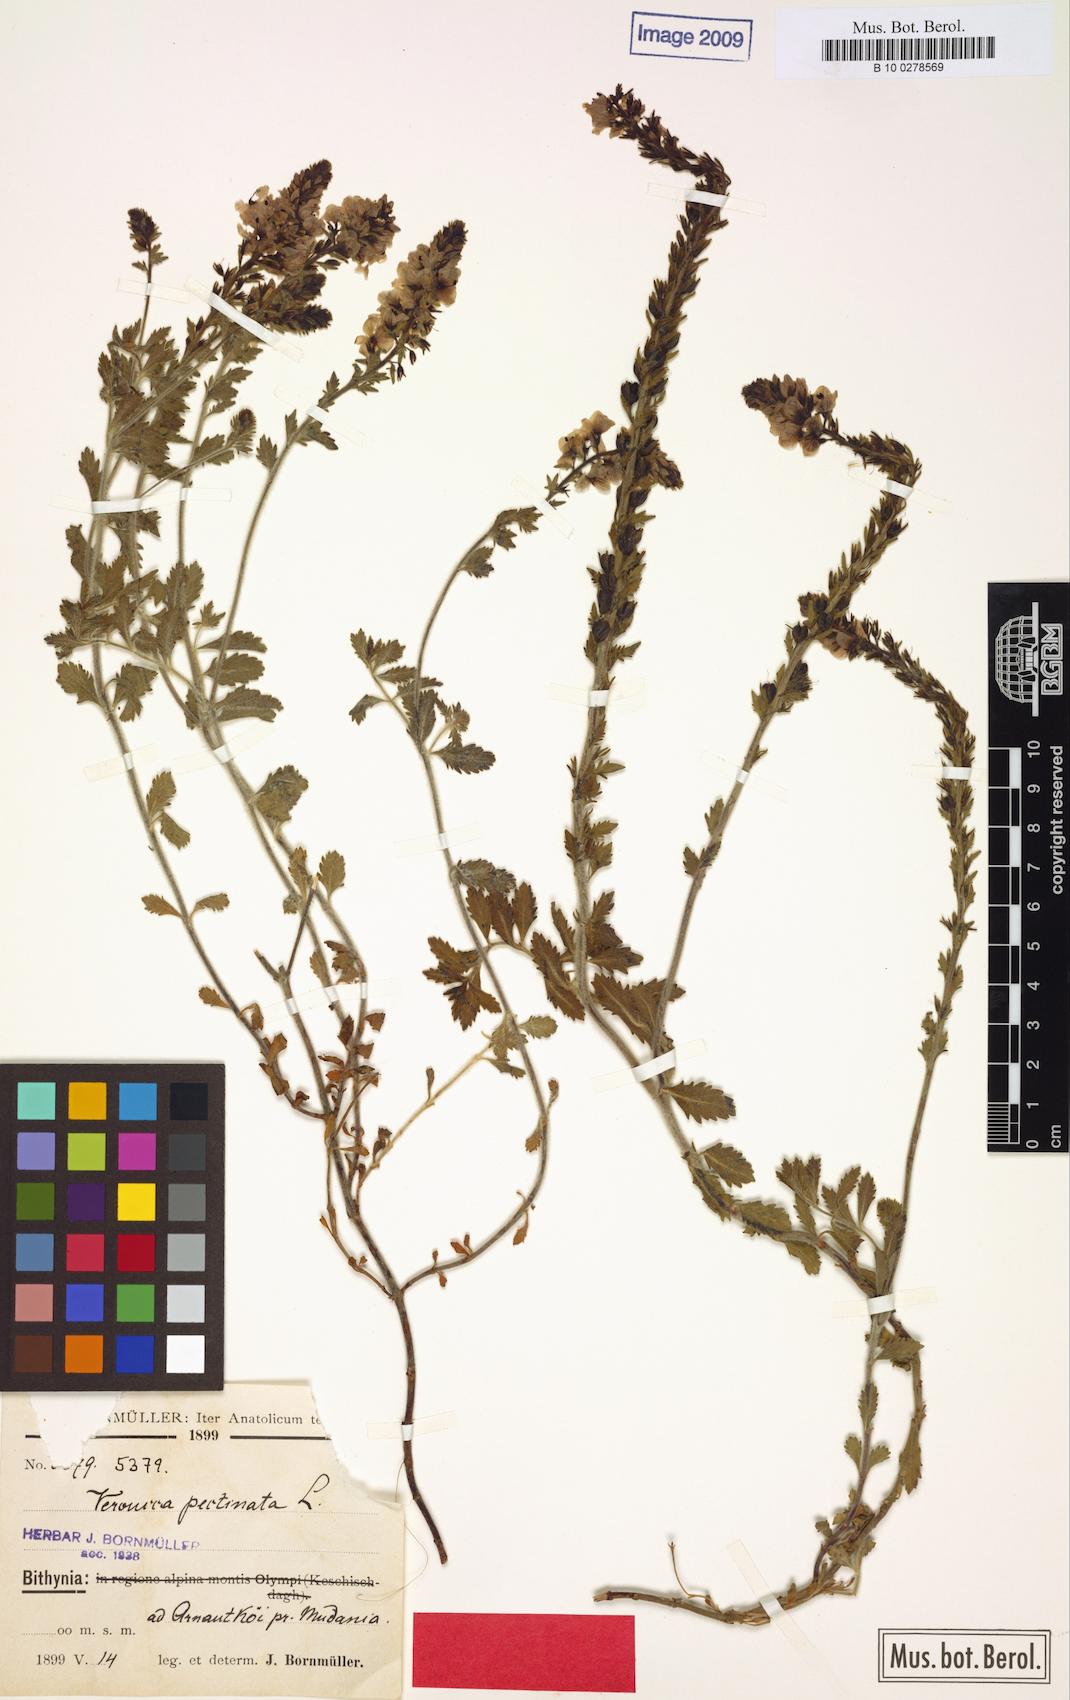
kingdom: Plantae
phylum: Tracheophyta
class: Magnoliopsida
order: Lamiales
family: Plantaginaceae
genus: Veronica
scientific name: Veronica pectinata
